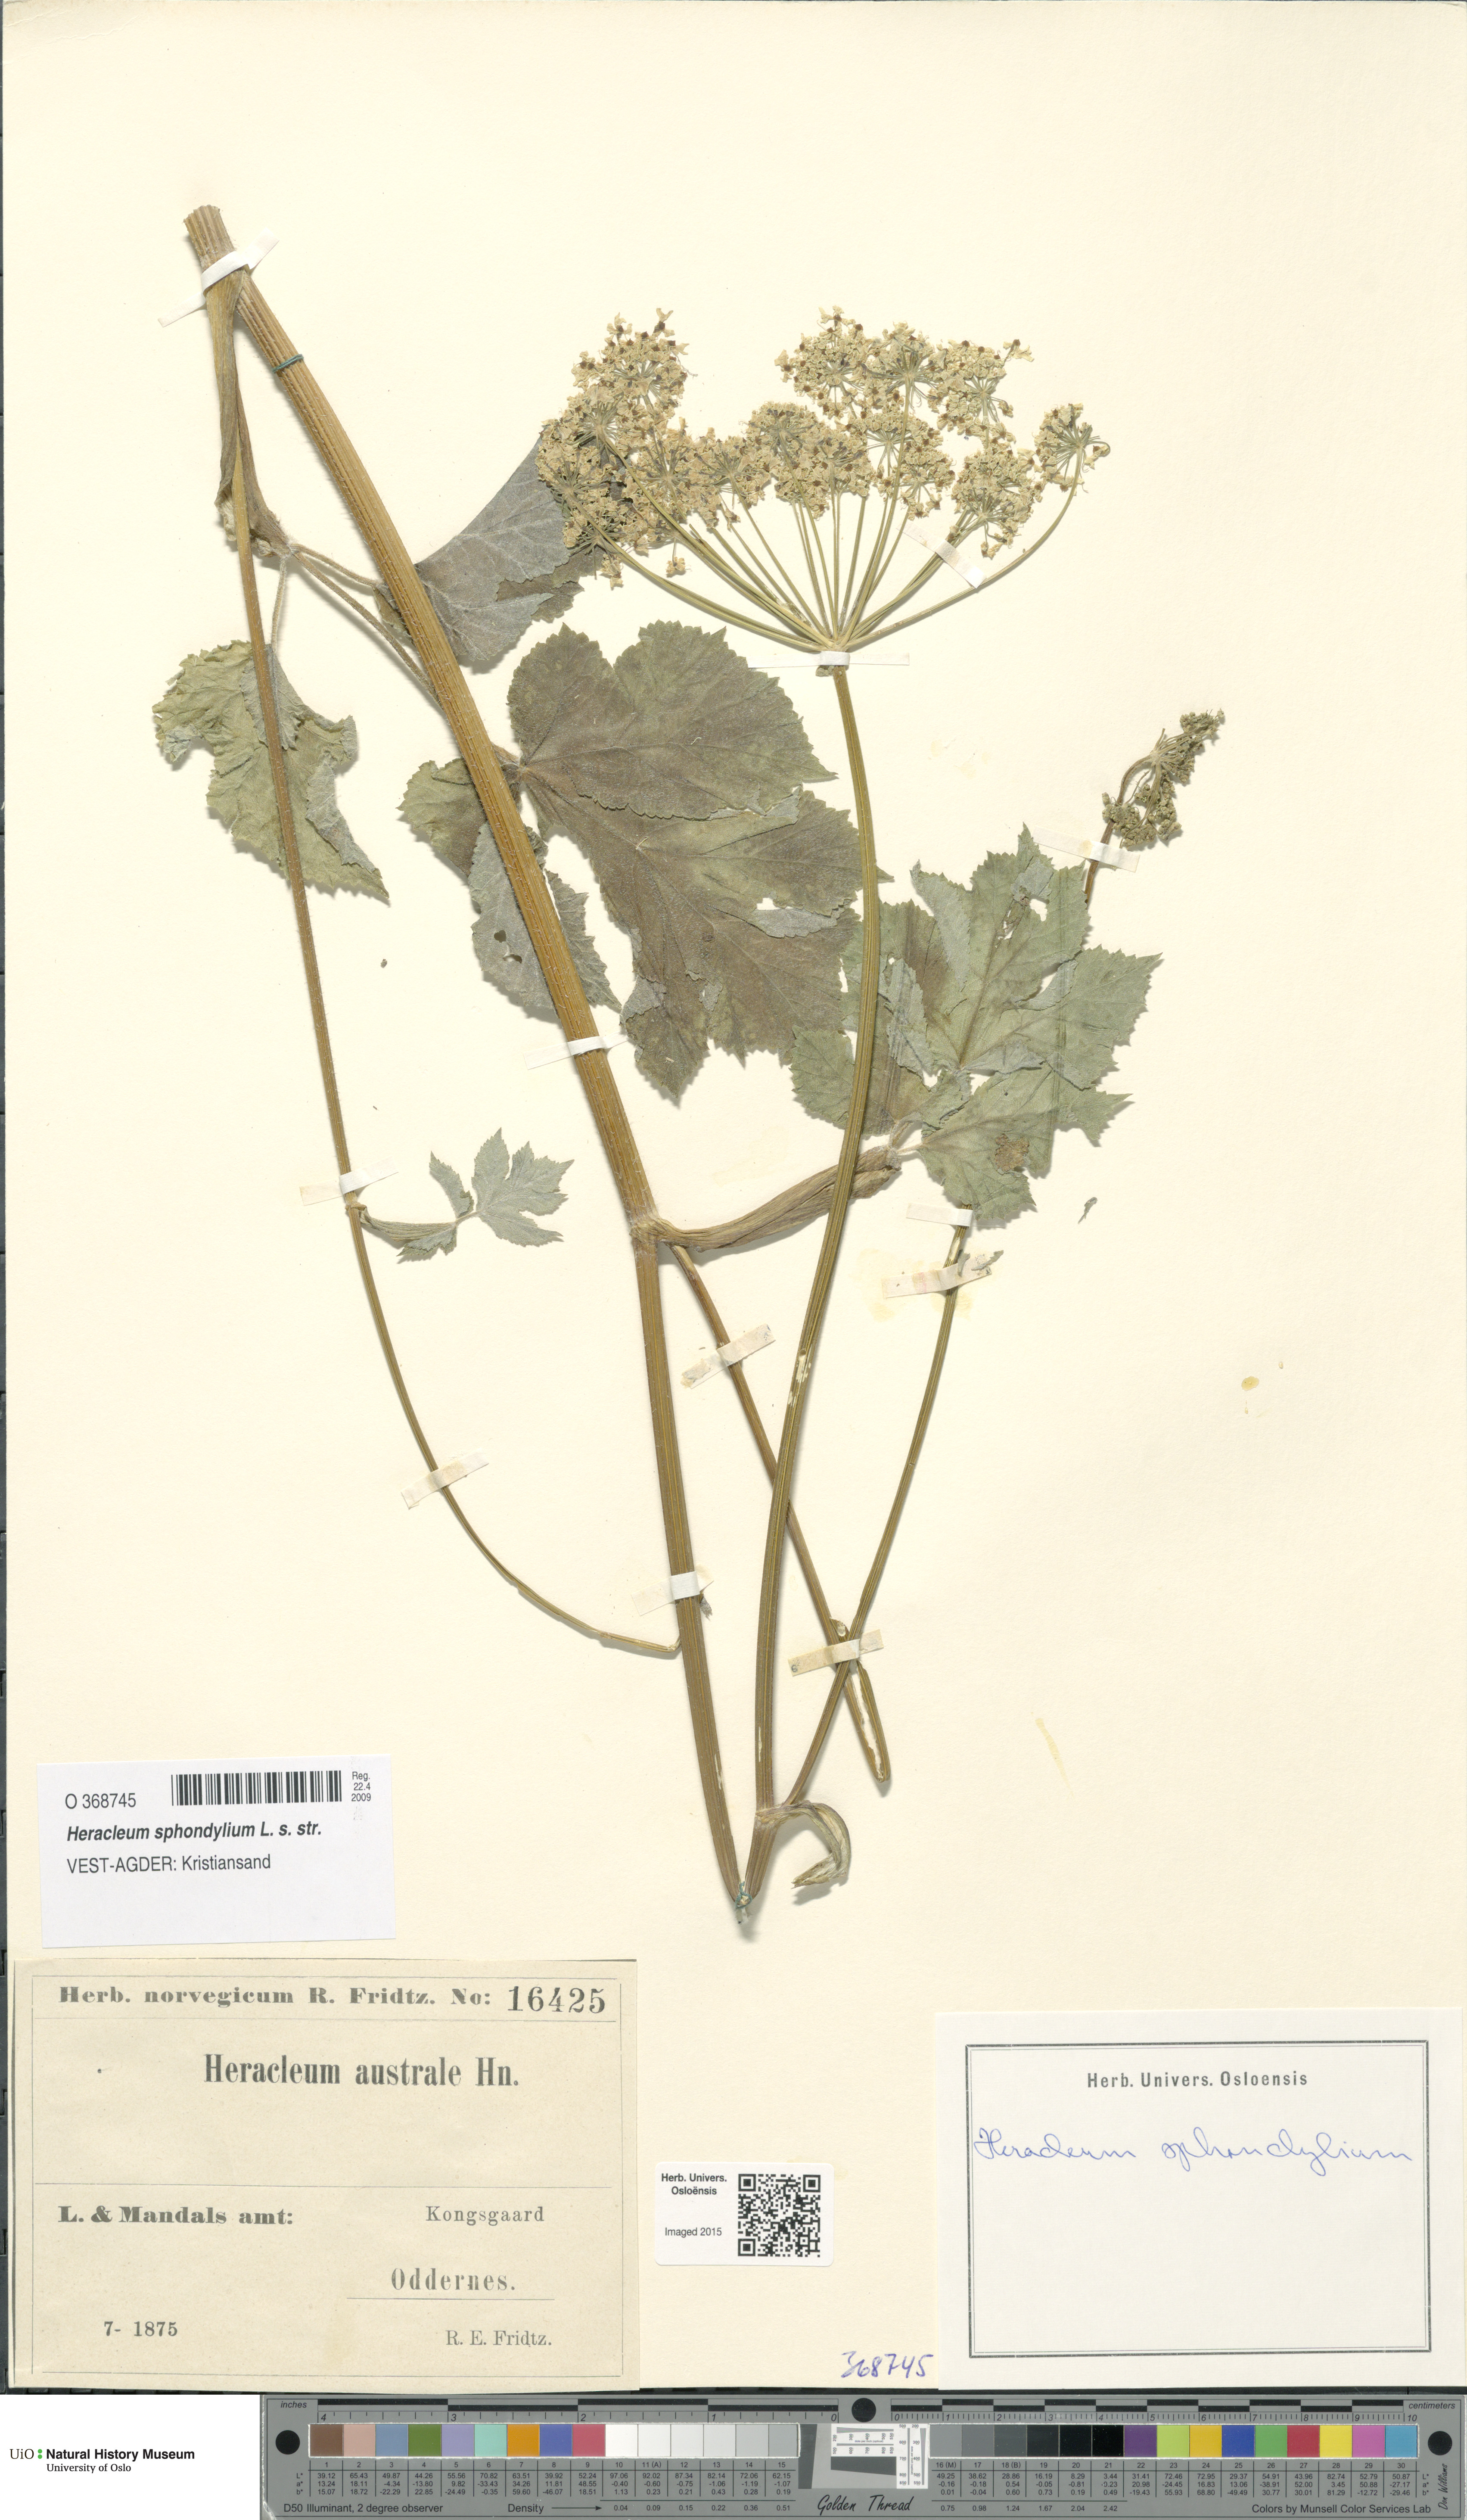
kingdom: Plantae
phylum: Tracheophyta
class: Magnoliopsida
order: Apiales
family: Apiaceae
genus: Heracleum
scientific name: Heracleum sphondylium
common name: Hogweed
